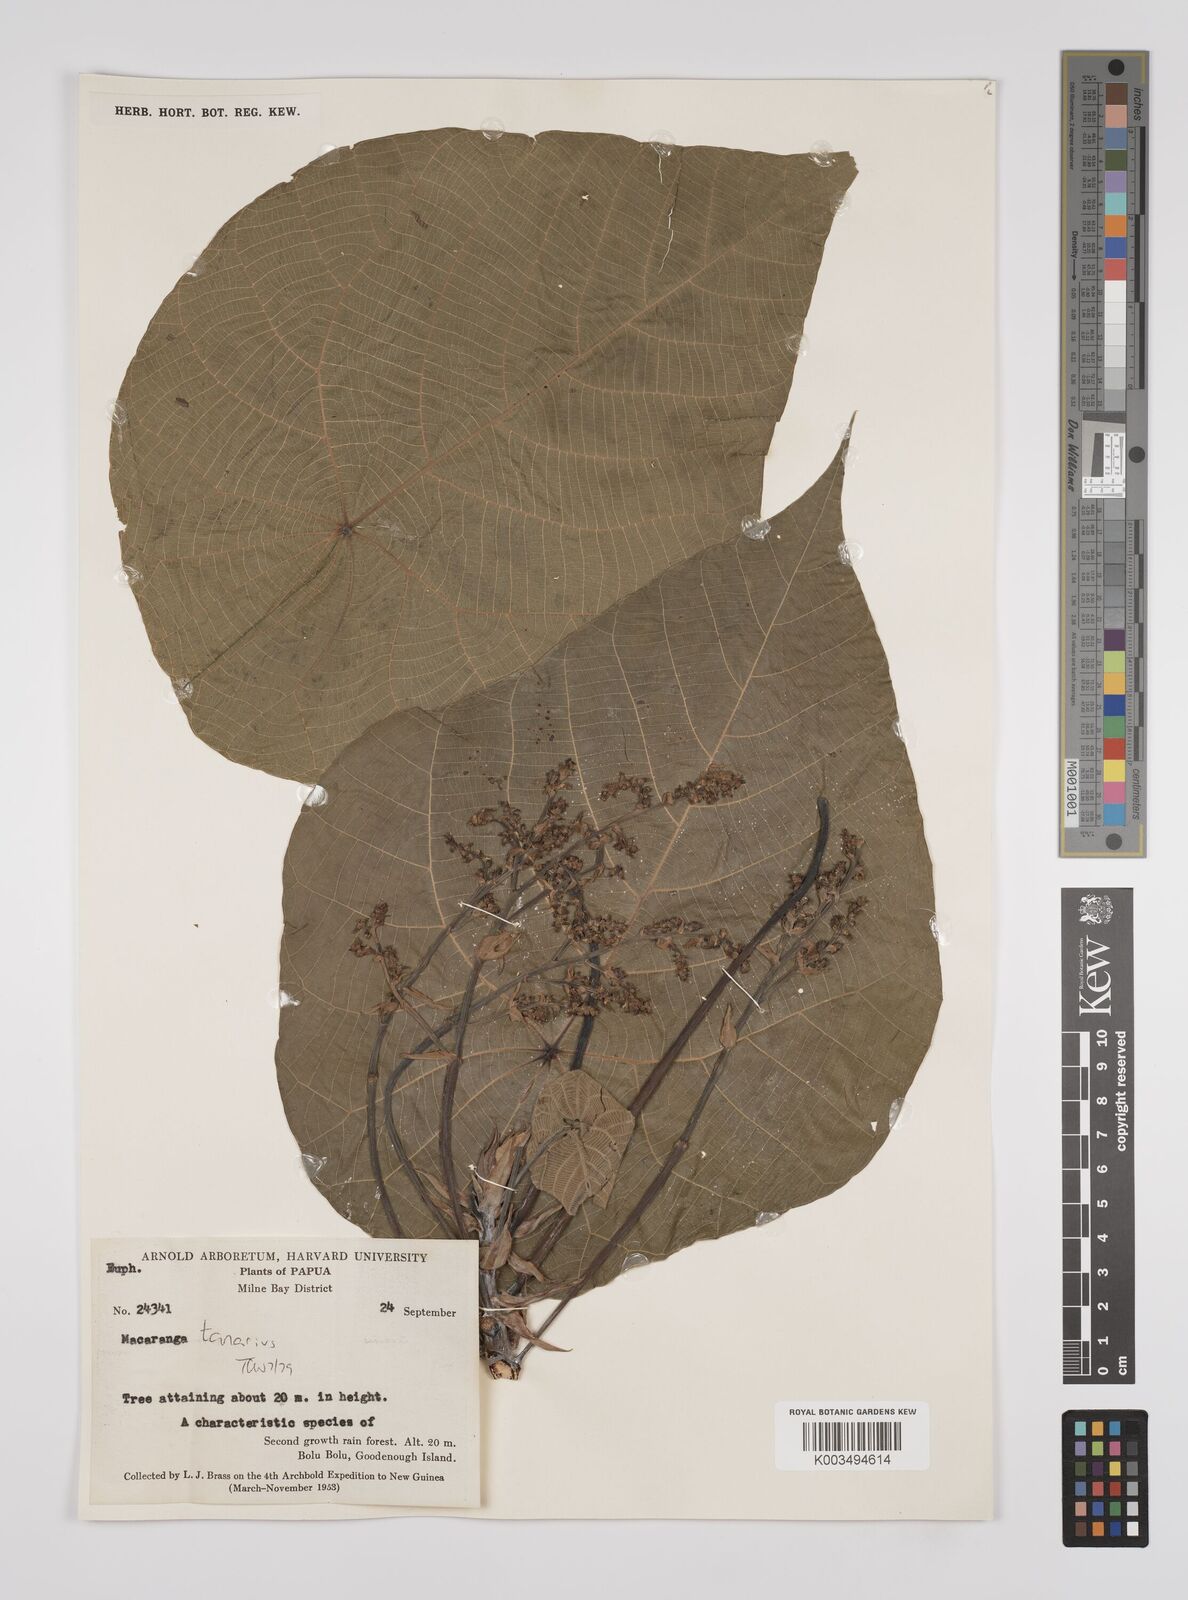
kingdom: Plantae
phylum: Tracheophyta
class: Magnoliopsida
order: Malpighiales
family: Euphorbiaceae
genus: Macaranga
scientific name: Macaranga tanarius
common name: Parasol leaf tree
